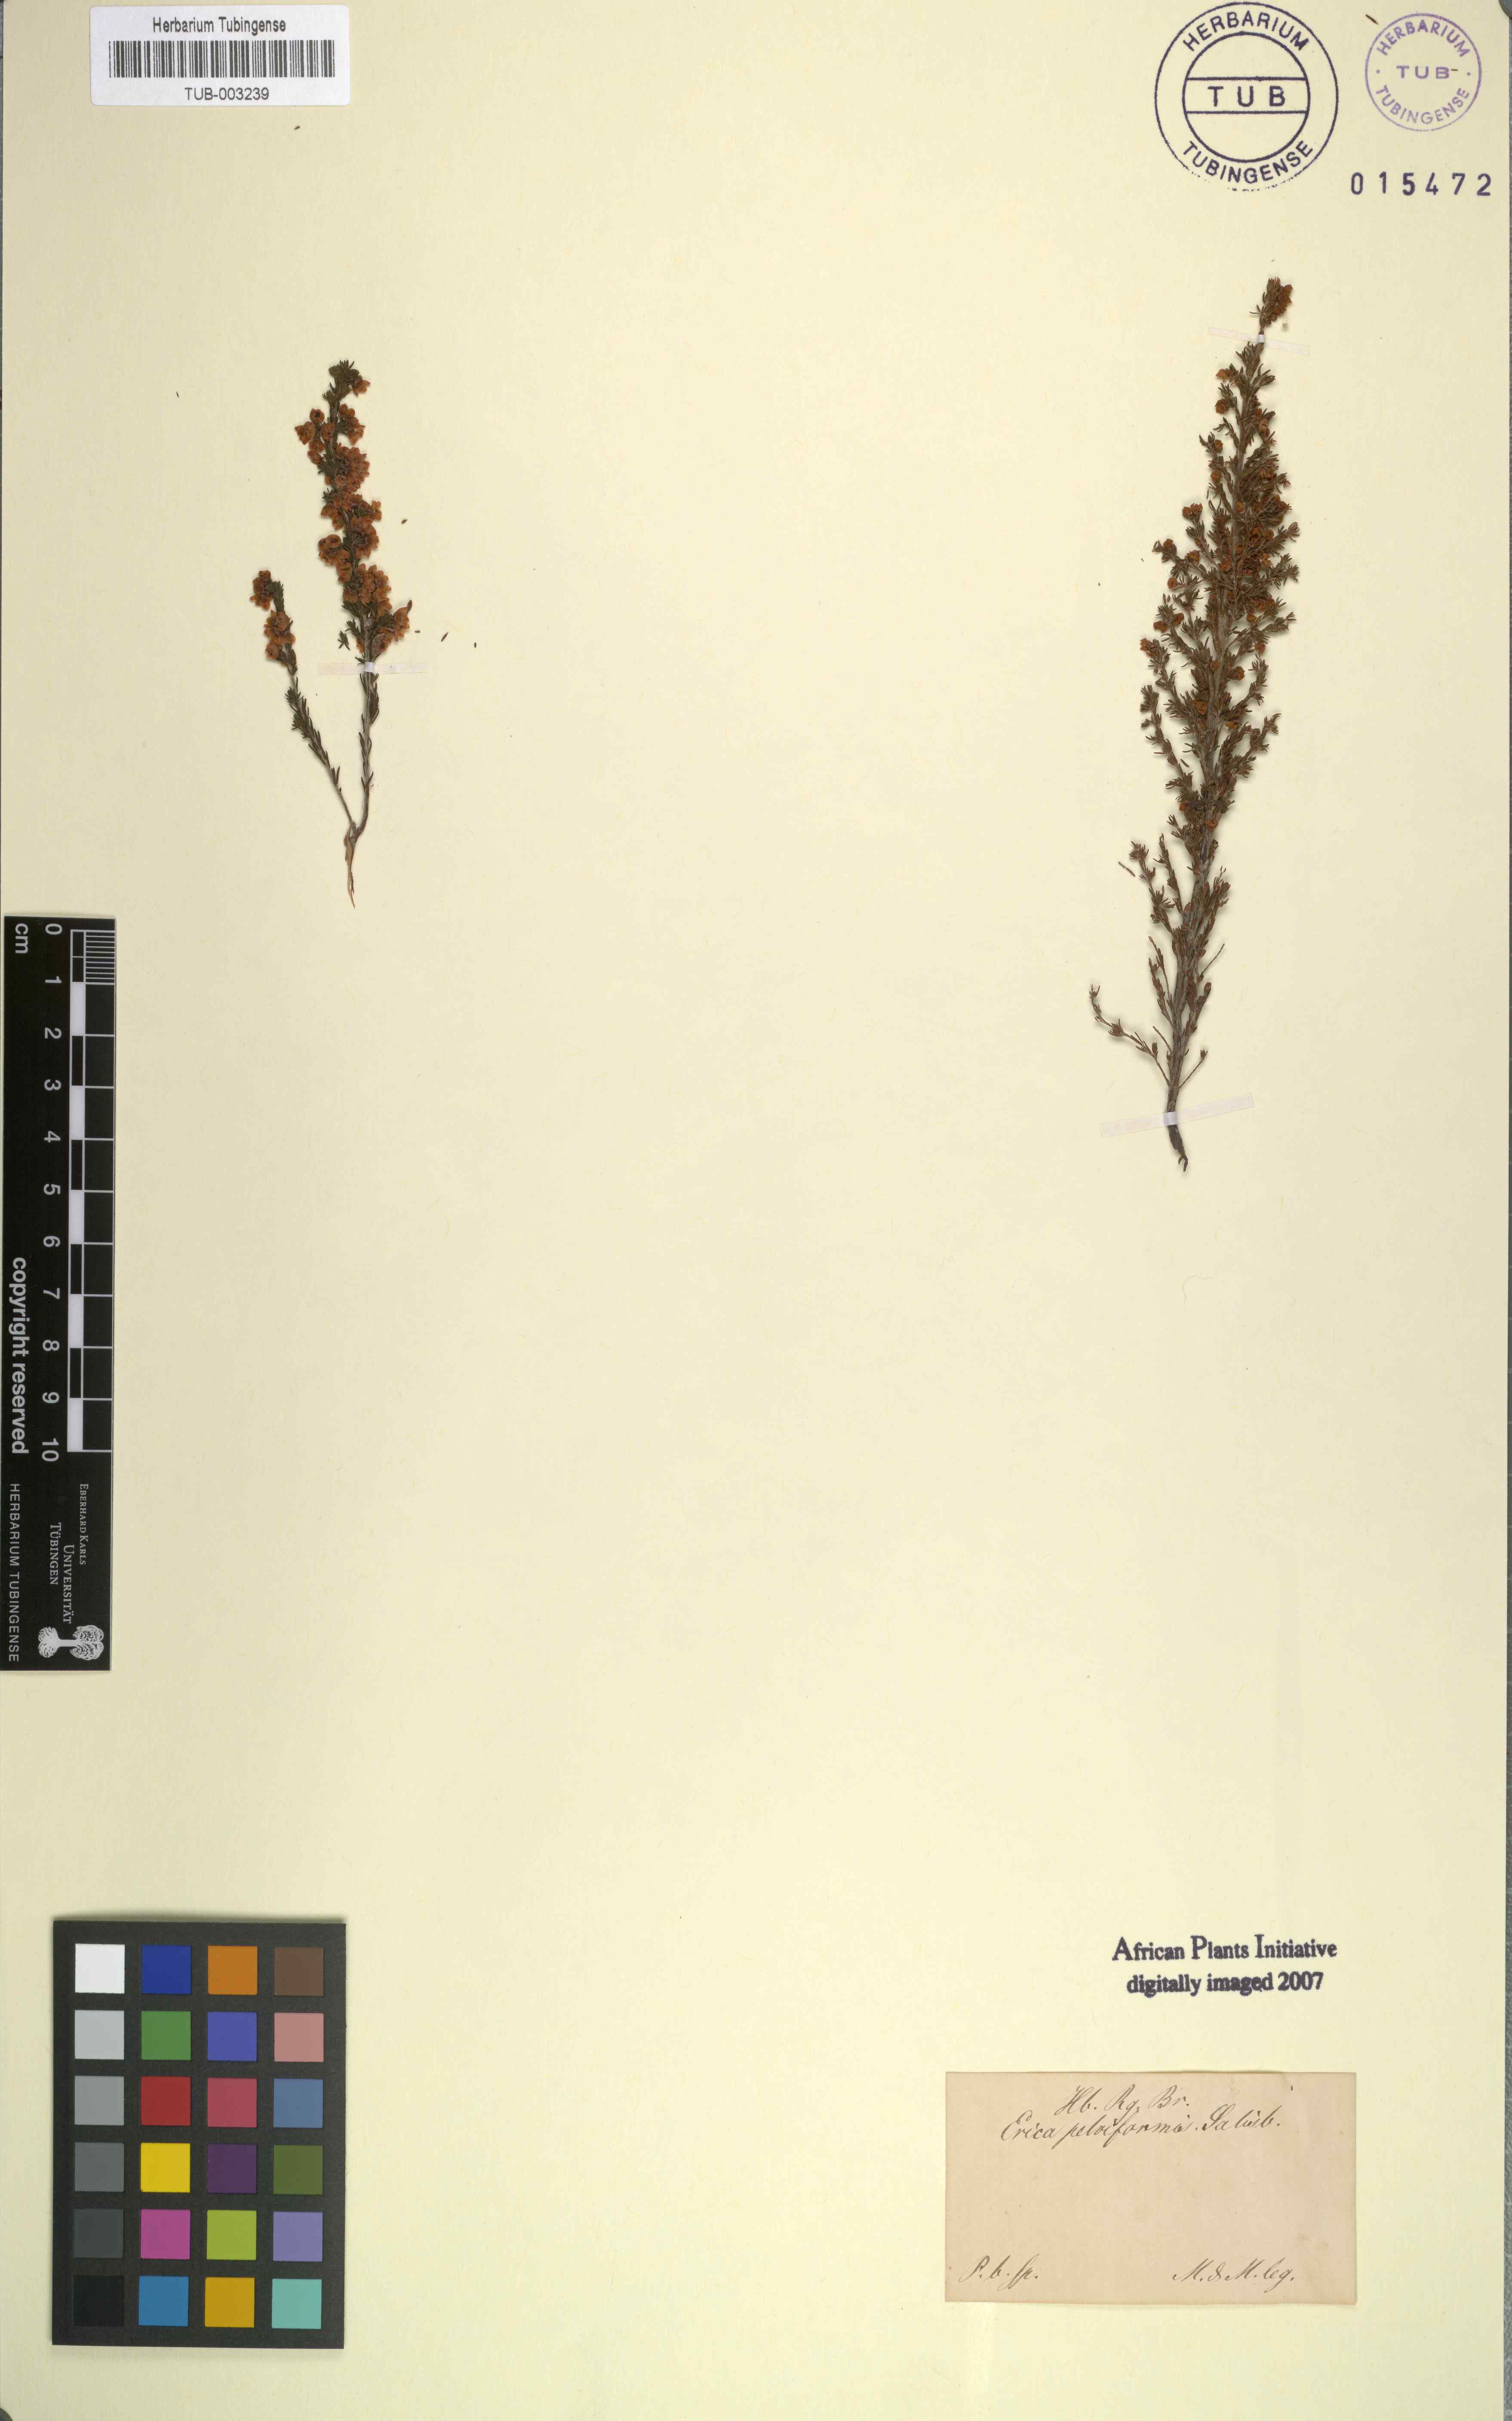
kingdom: Plantae
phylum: Tracheophyta
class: Magnoliopsida
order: Ericales
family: Ericaceae
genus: Erica
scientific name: Erica regerminans
